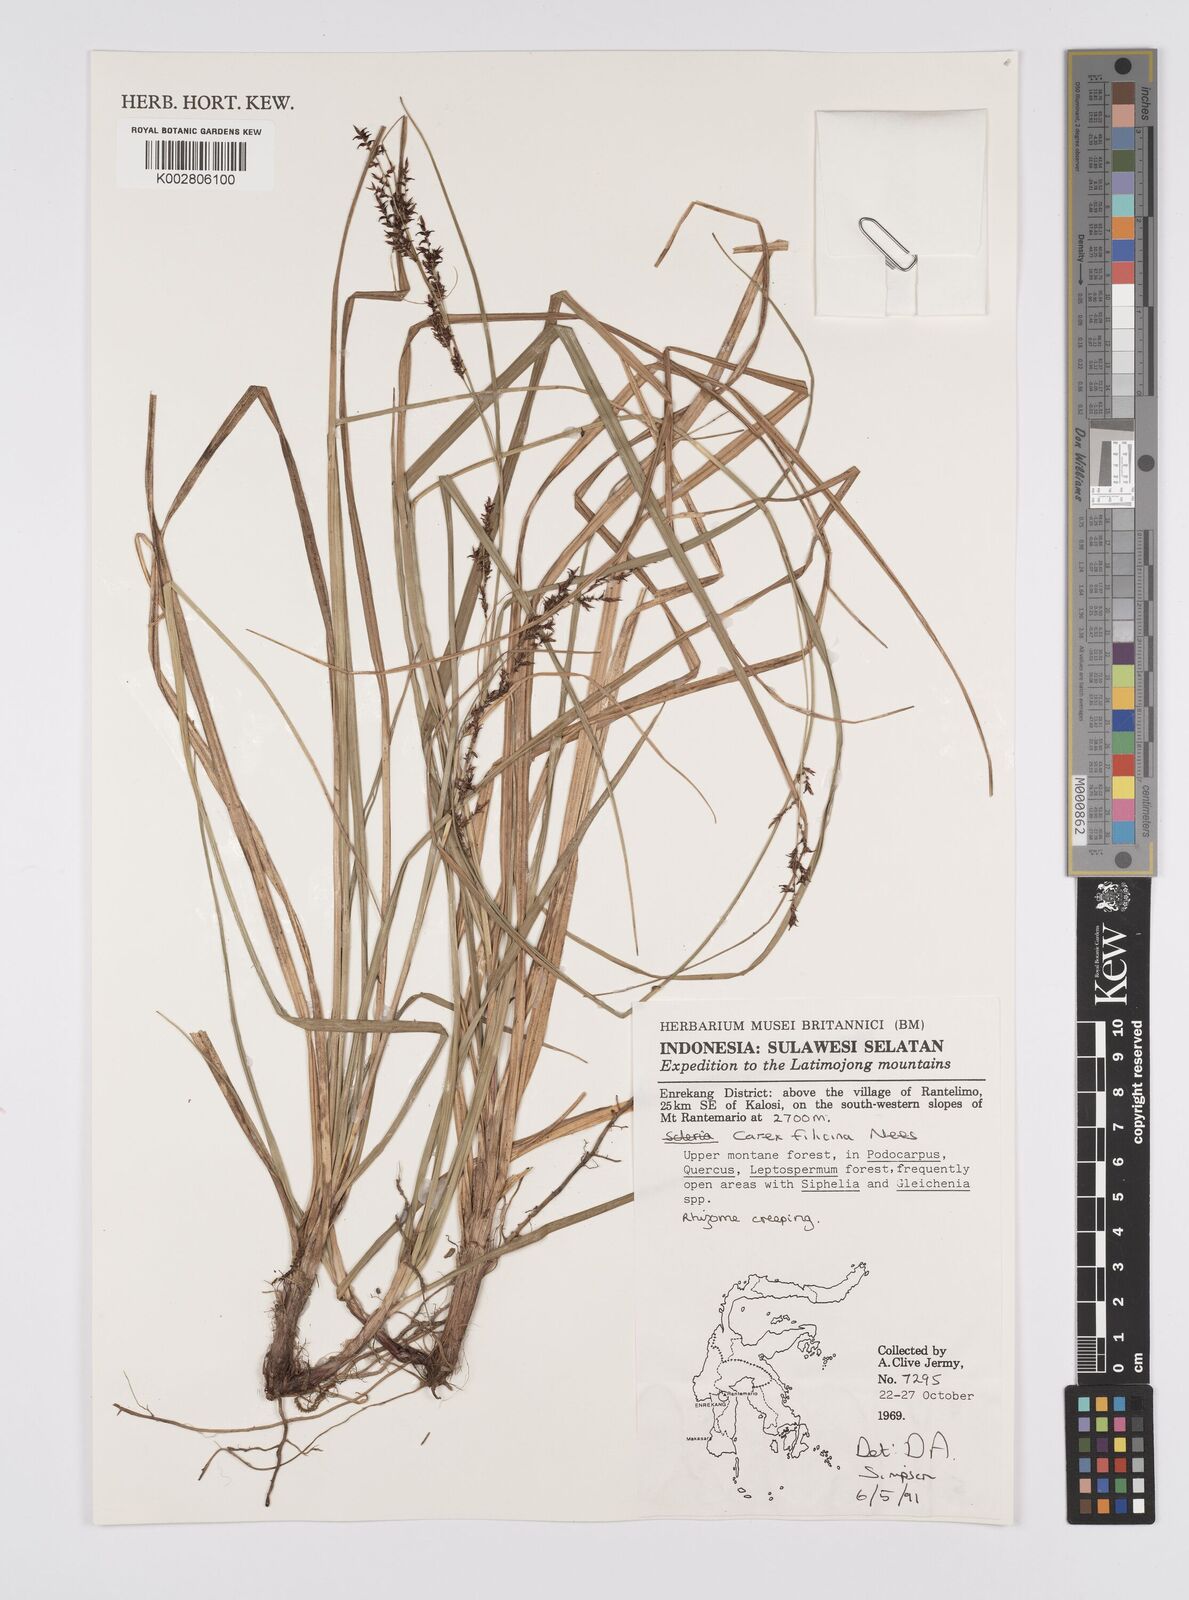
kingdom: Plantae
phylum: Tracheophyta
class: Liliopsida
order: Poales
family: Cyperaceae
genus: Carex
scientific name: Carex filicina
